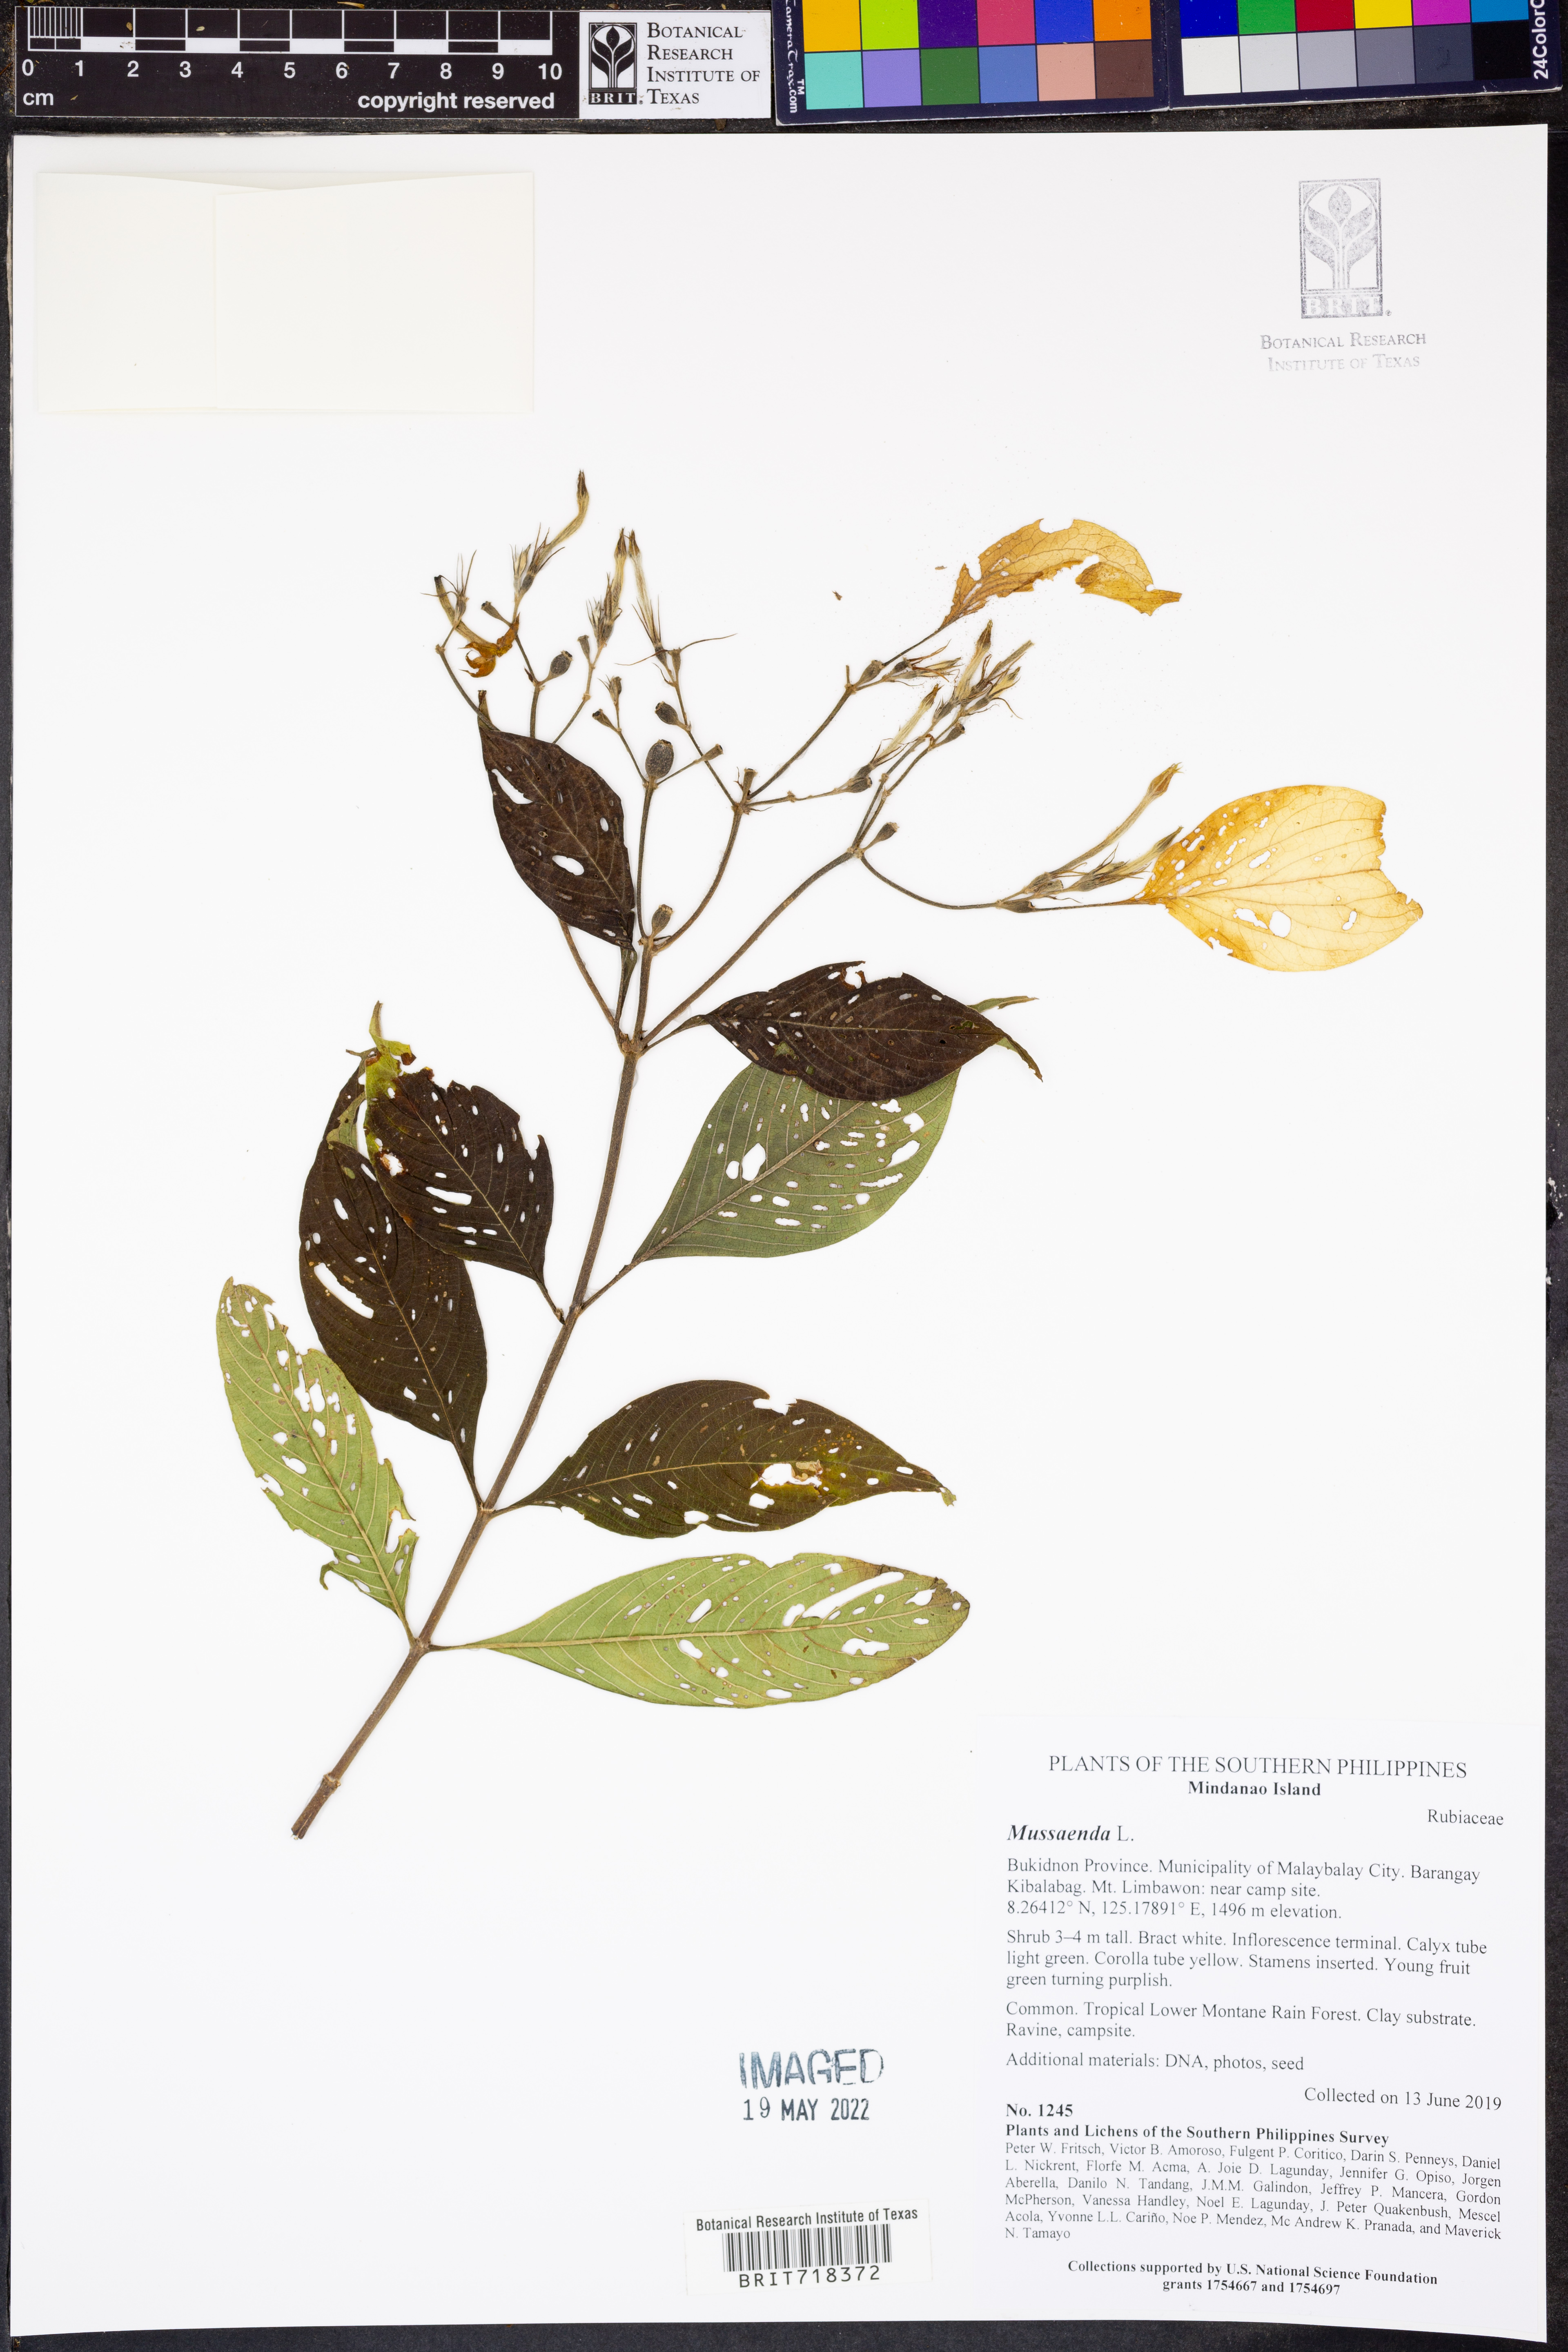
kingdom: Plantae
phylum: Tracheophyta
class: Magnoliopsida
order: Gentianales
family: Rubiaceae
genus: Mussaenda
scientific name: Mussaenda
